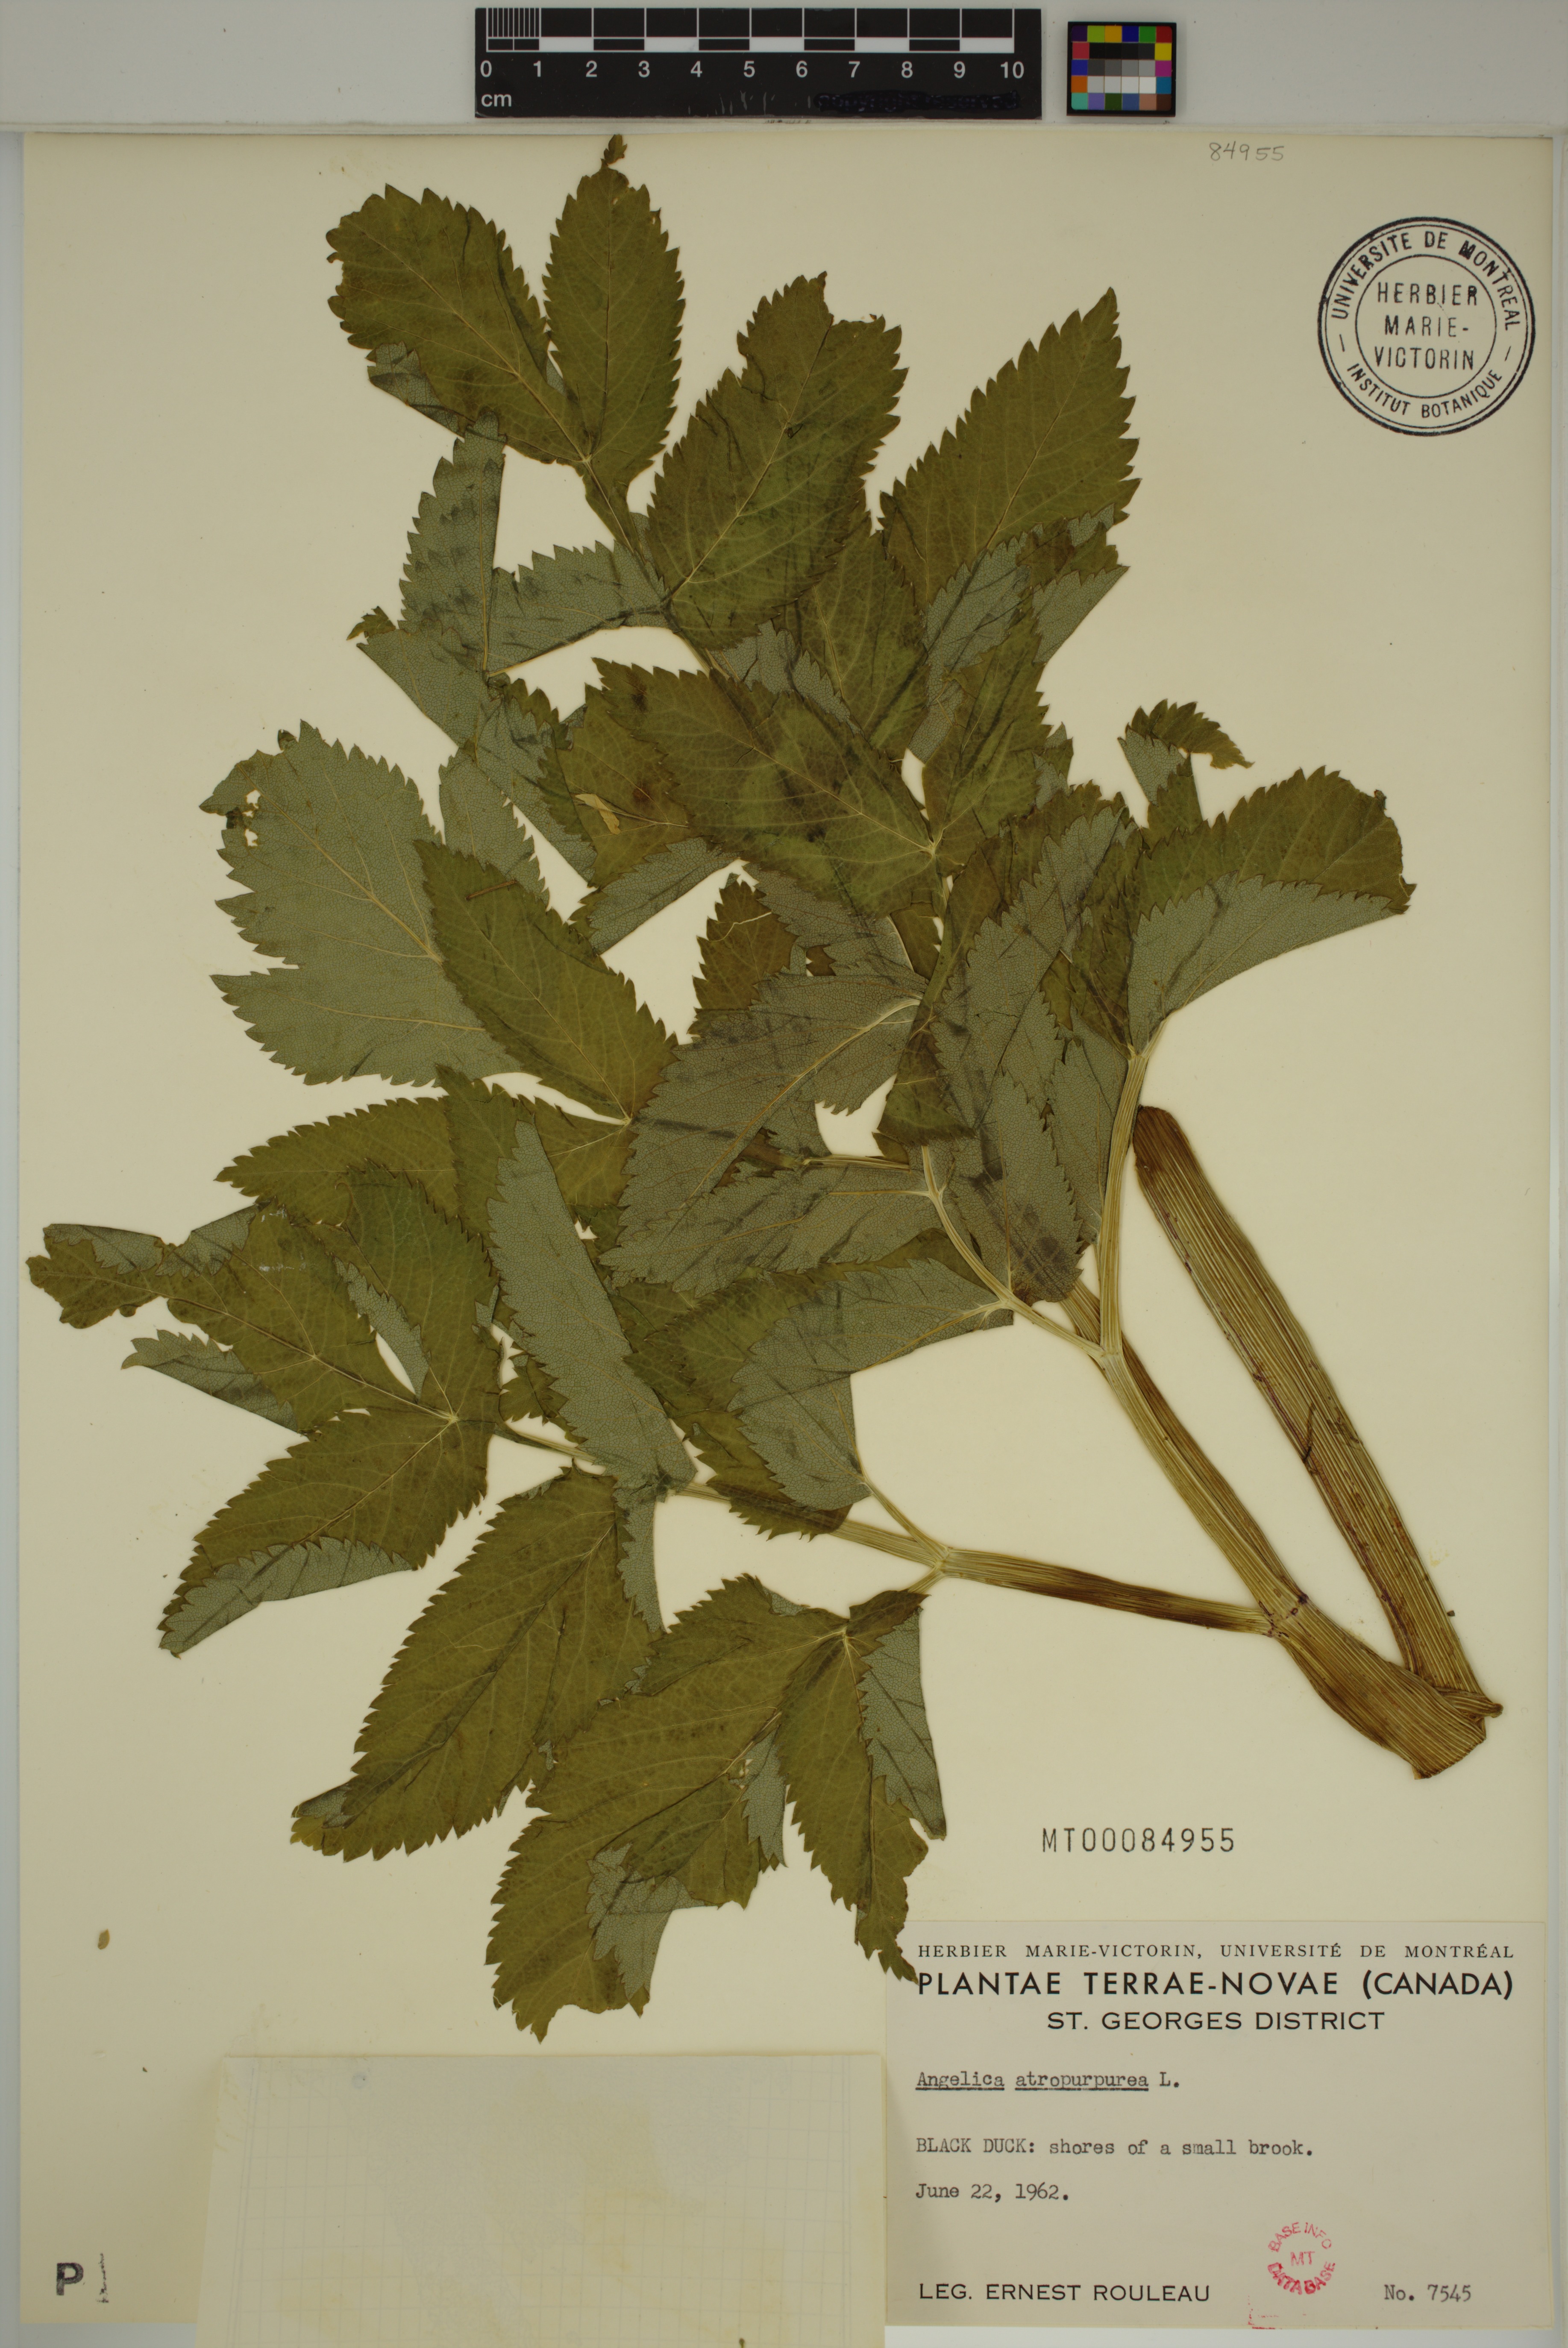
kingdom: Plantae
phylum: Tracheophyta
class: Magnoliopsida
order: Apiales
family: Apiaceae
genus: Angelica
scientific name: Angelica atropurpurea
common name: Great angelica
